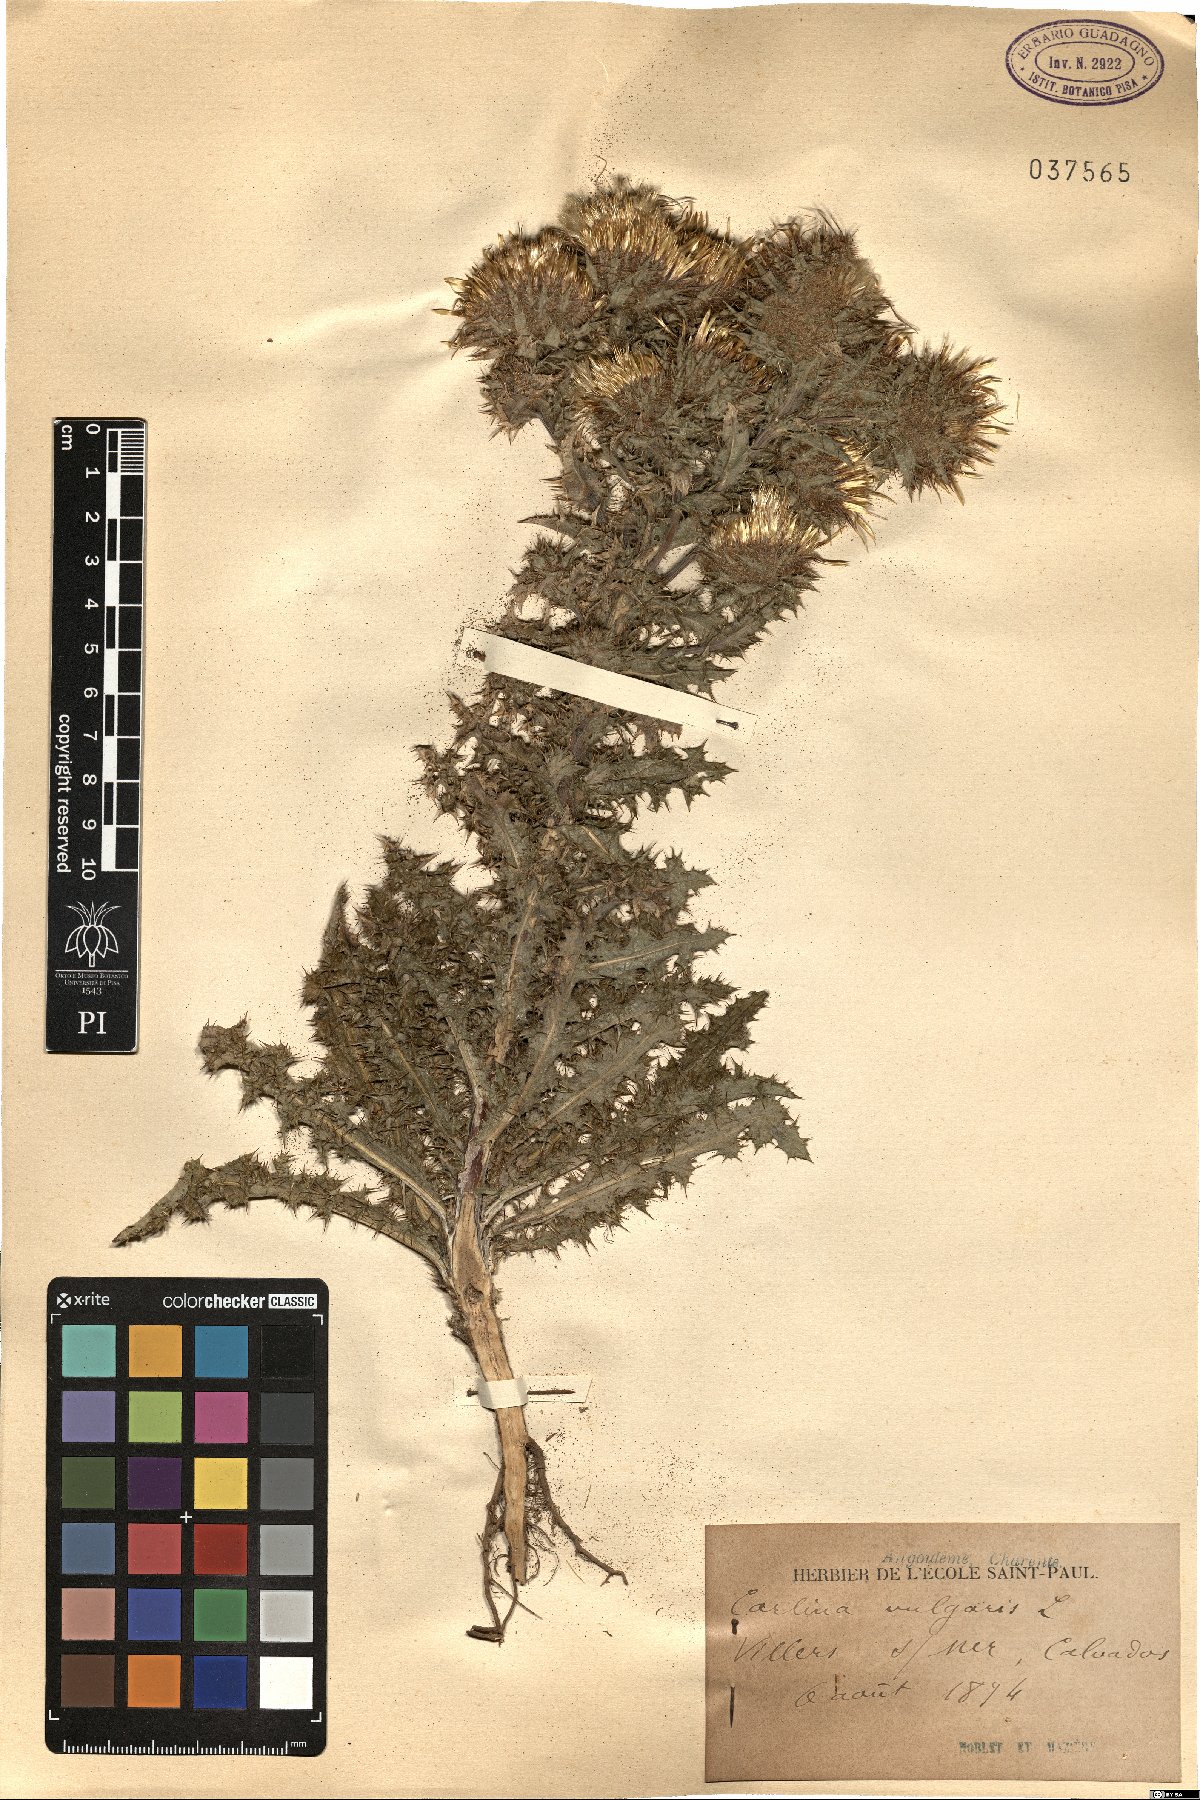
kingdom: Plantae
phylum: Tracheophyta
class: Magnoliopsida
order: Asterales
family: Asteraceae
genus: Carlina
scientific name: Carlina vulgaris
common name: Carline thistle
